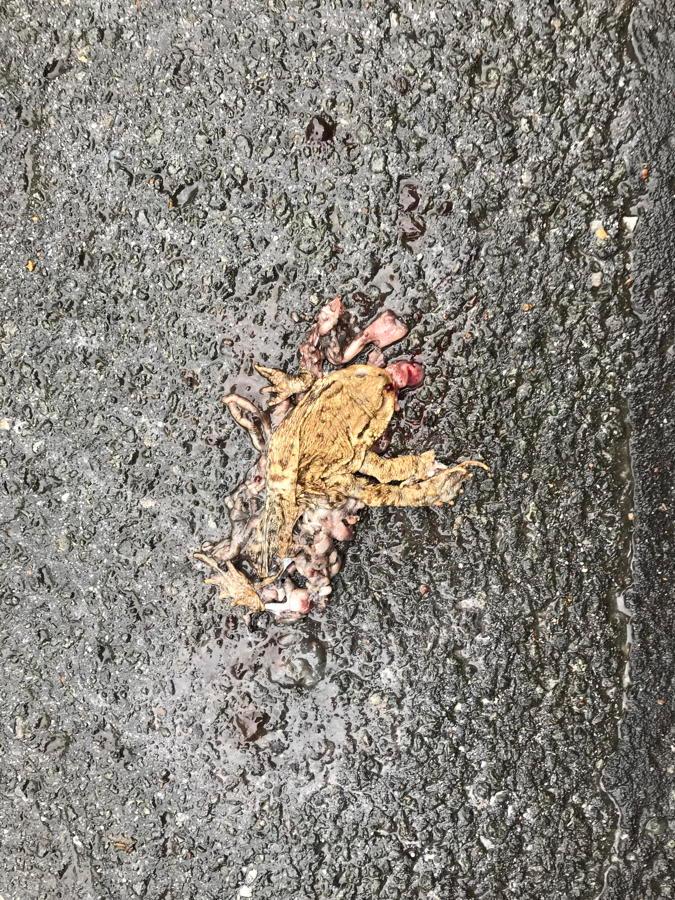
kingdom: Animalia
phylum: Chordata
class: Amphibia
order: Anura
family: Bufonidae
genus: Bufo
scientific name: Bufo bufo
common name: Common toad
